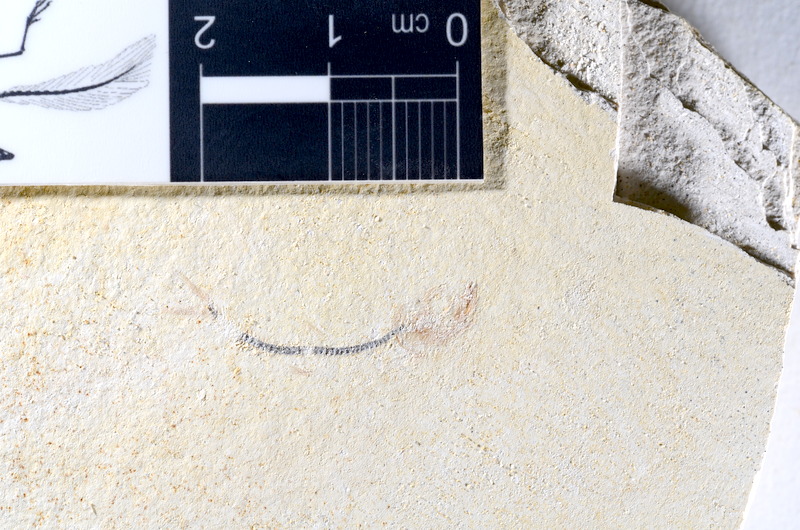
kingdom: Animalia
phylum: Chordata
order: Salmoniformes
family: Orthogonikleithridae
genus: Orthogonikleithrus
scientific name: Orthogonikleithrus hoelli
